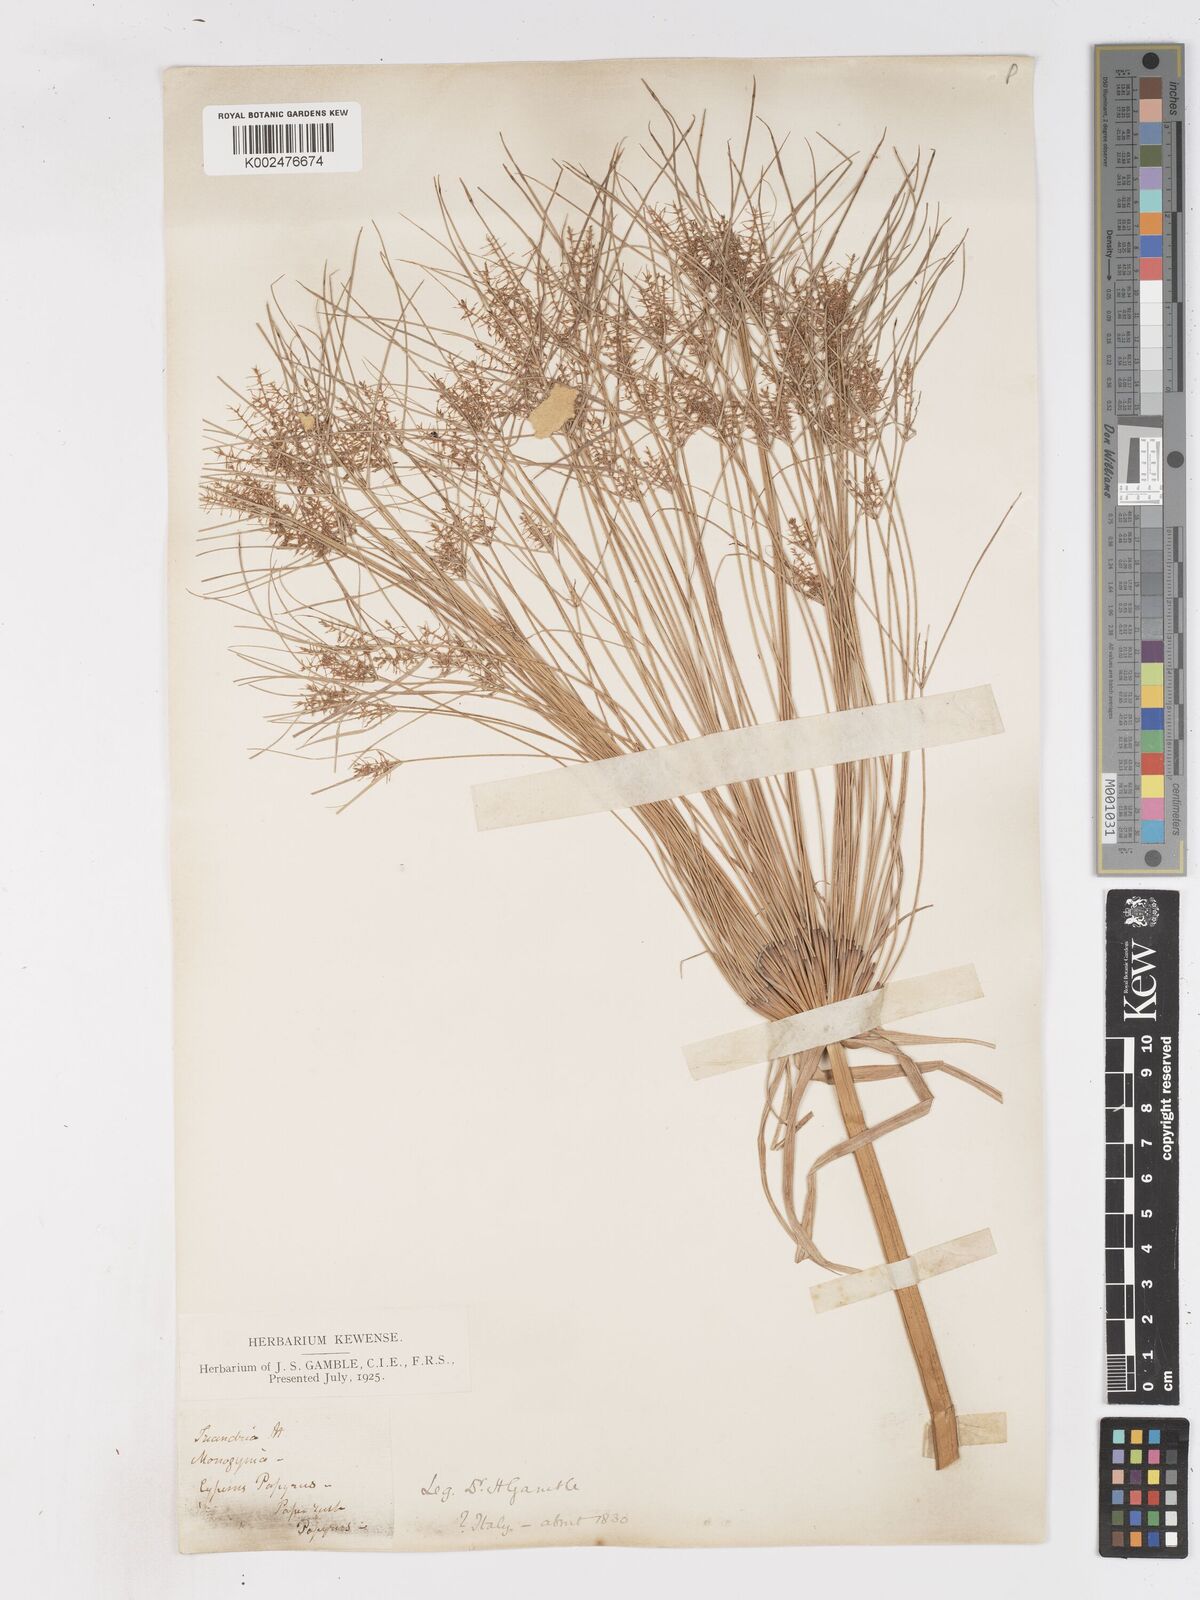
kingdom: Plantae
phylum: Tracheophyta
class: Liliopsida
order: Poales
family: Cyperaceae
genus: Cyperus
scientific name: Cyperus papyrus
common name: Papyrus
